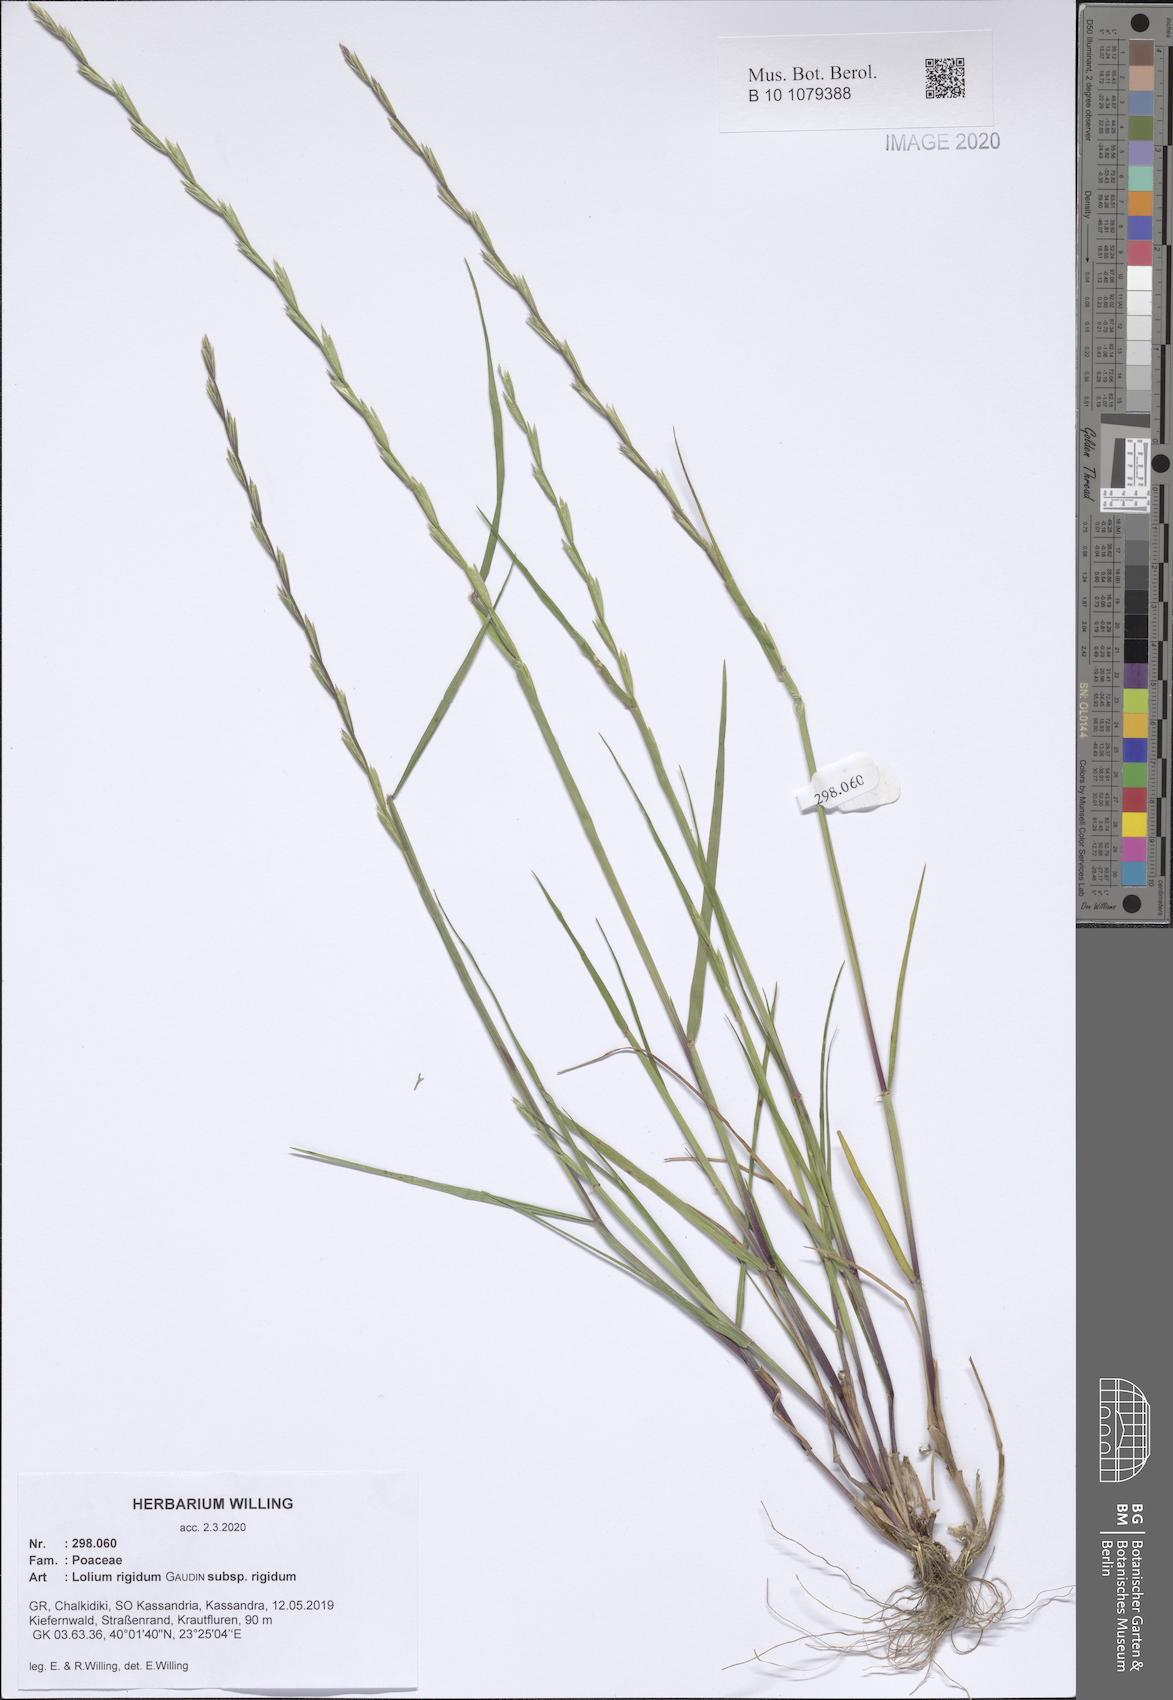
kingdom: Plantae
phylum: Tracheophyta
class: Liliopsida
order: Poales
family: Poaceae
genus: Lolium
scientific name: Lolium rigidum
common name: Wimmera ryegrass
